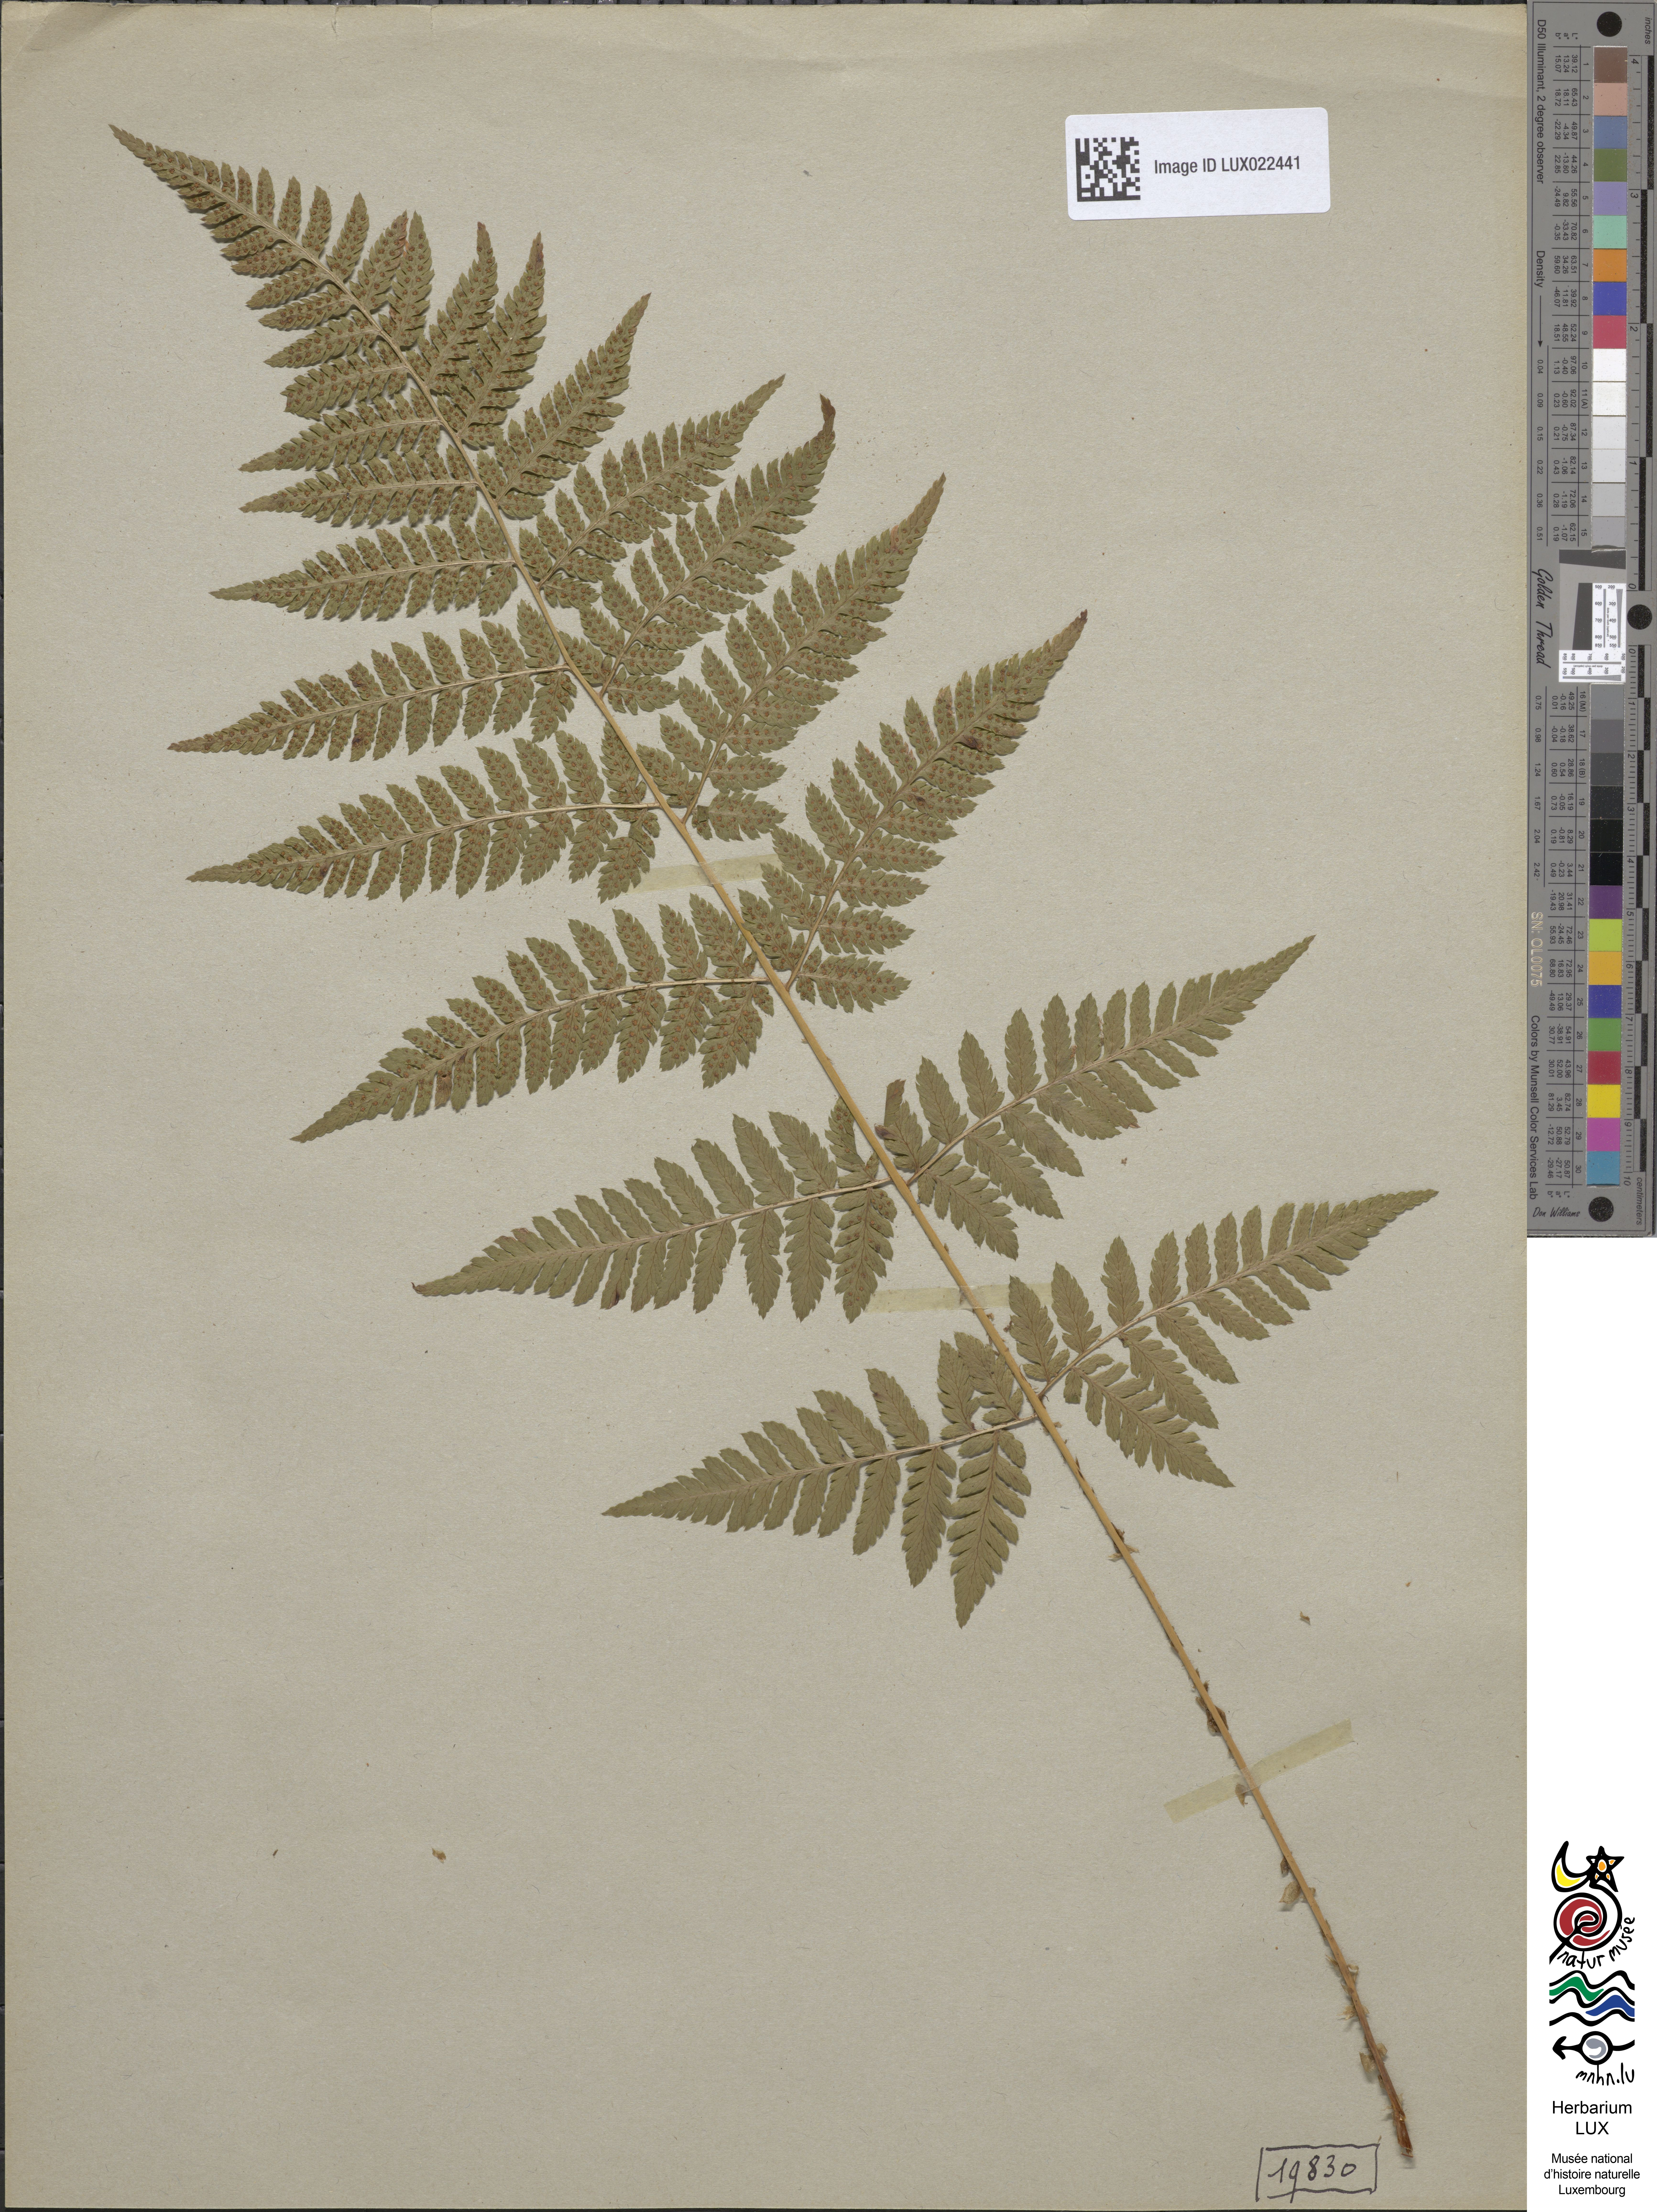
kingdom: Plantae
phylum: Tracheophyta
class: Polypodiopsida
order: Polypodiales
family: Dryopteridaceae
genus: Dryopteris
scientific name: Dryopteris carthusiana
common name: Narrow buckler-fern
